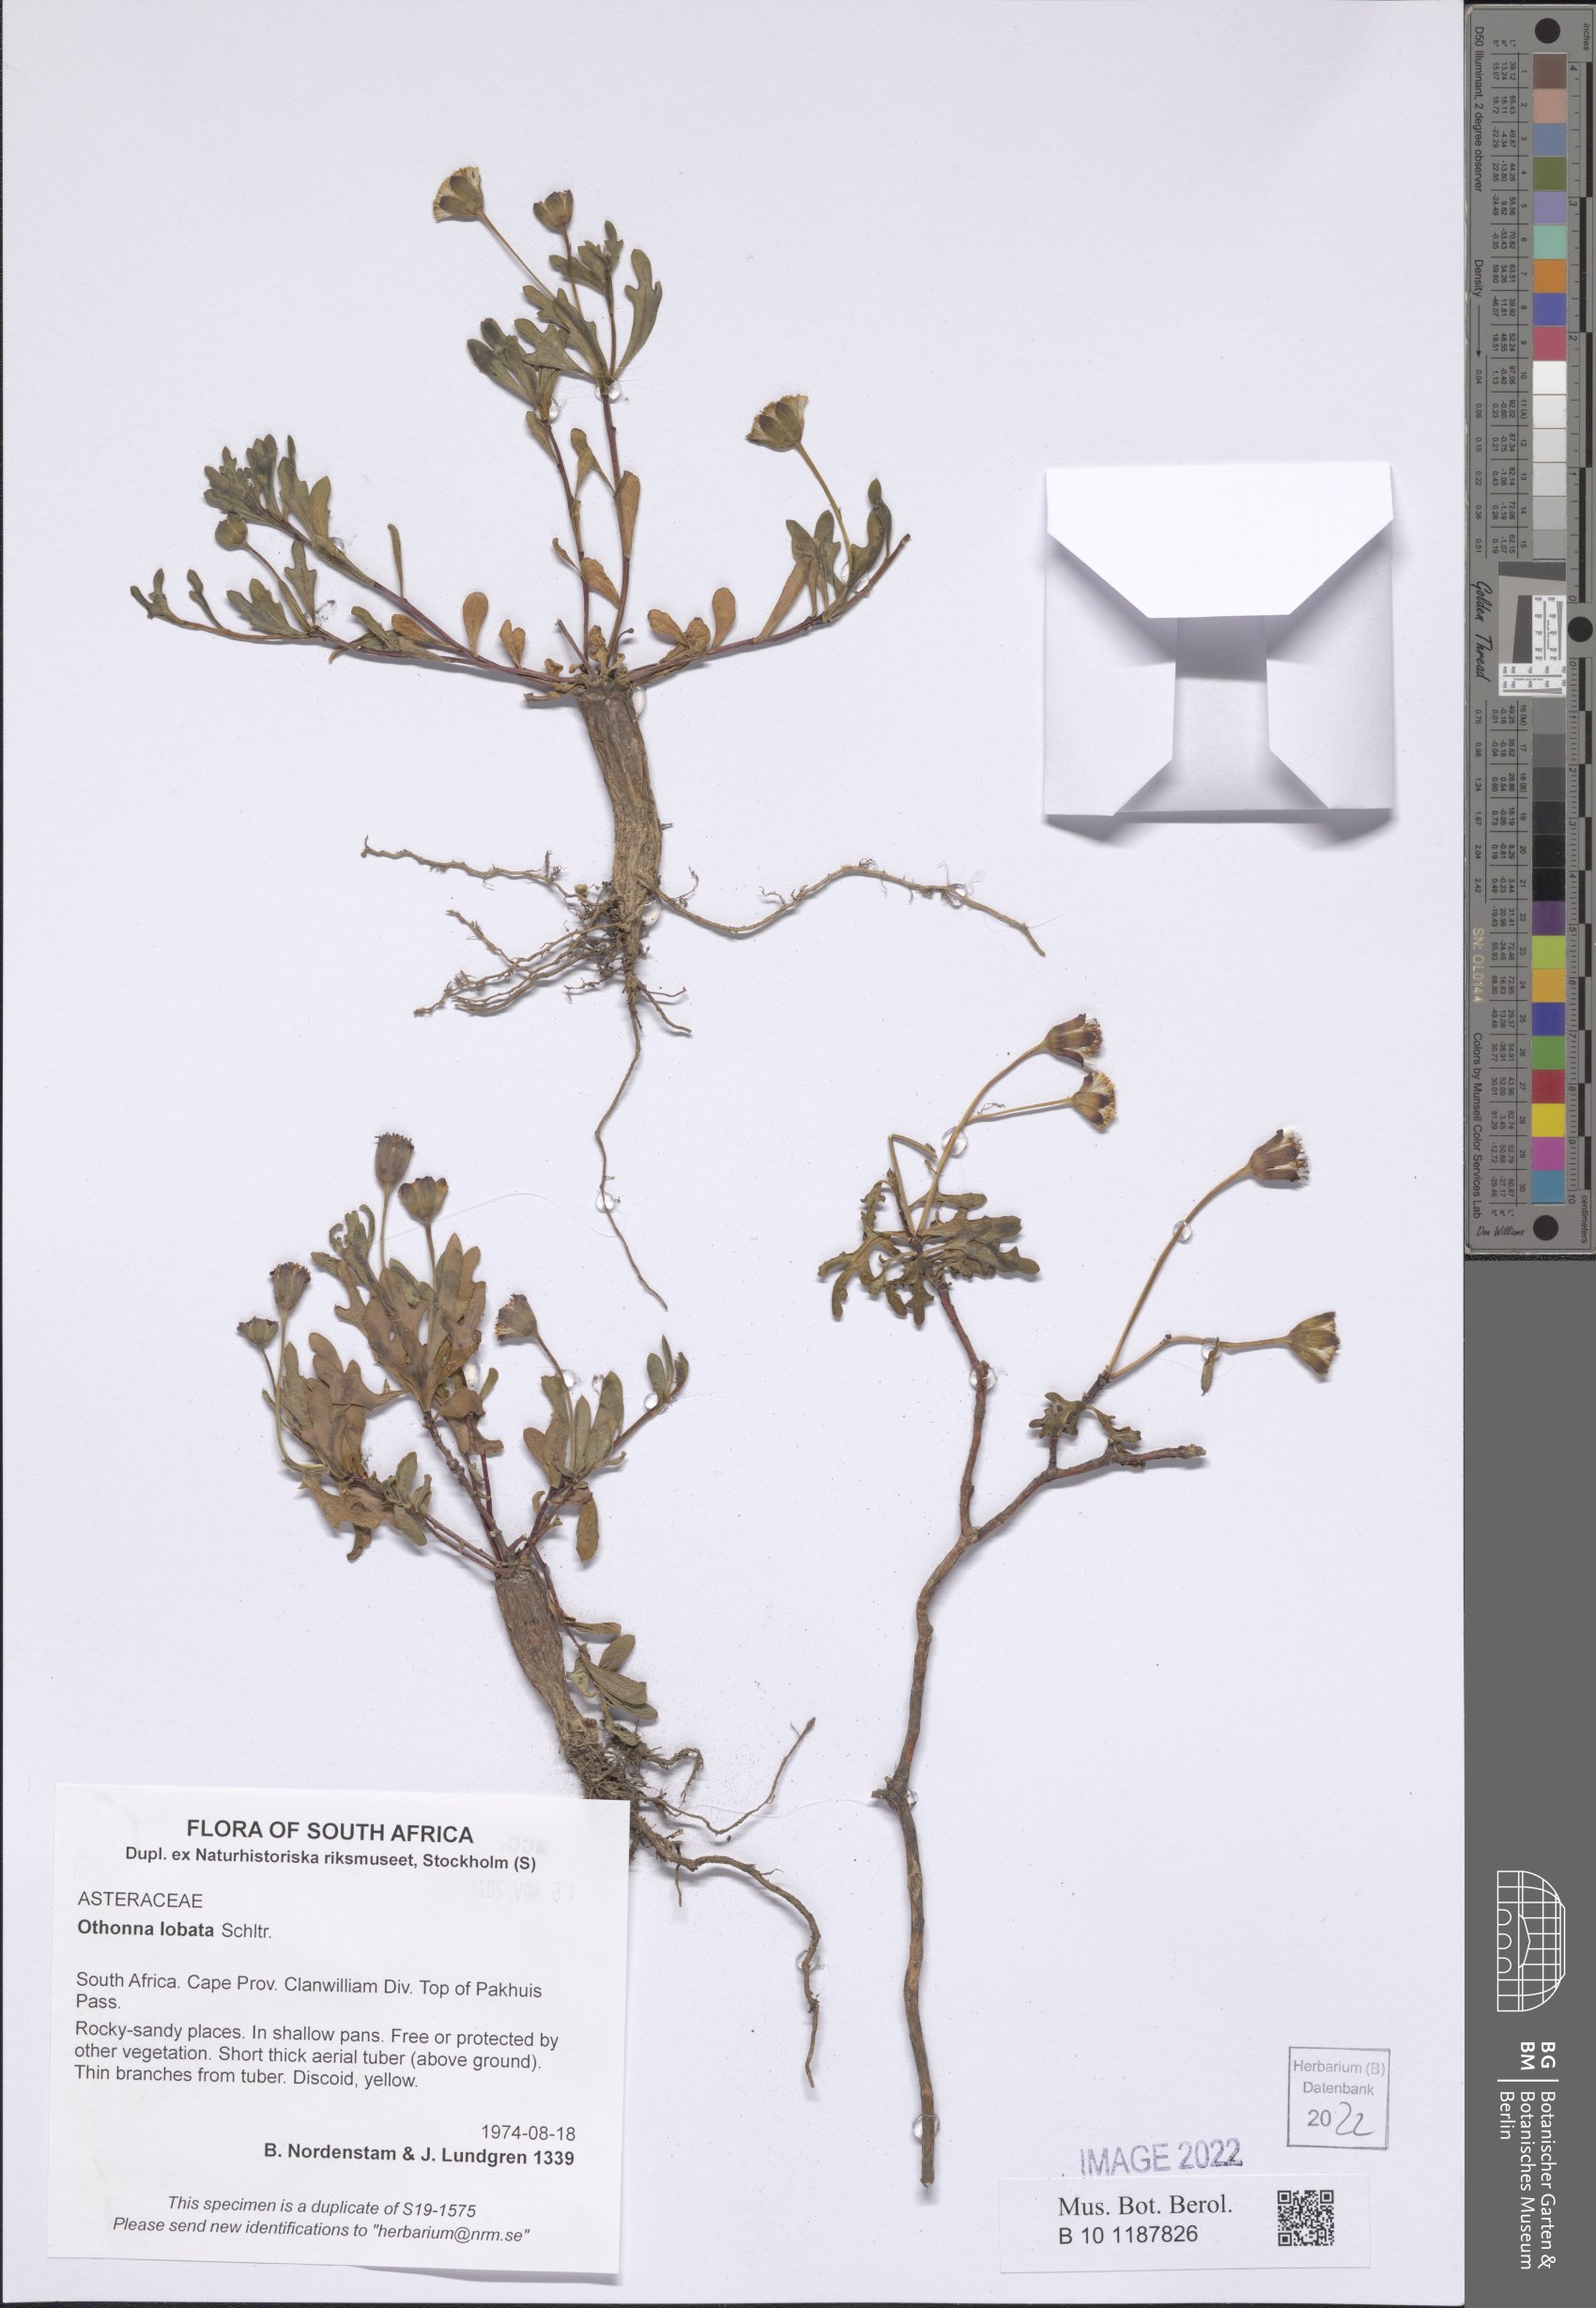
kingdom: Plantae
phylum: Tracheophyta
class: Magnoliopsida
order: Asterales
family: Asteraceae
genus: Othonna
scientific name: Othonna lobata
